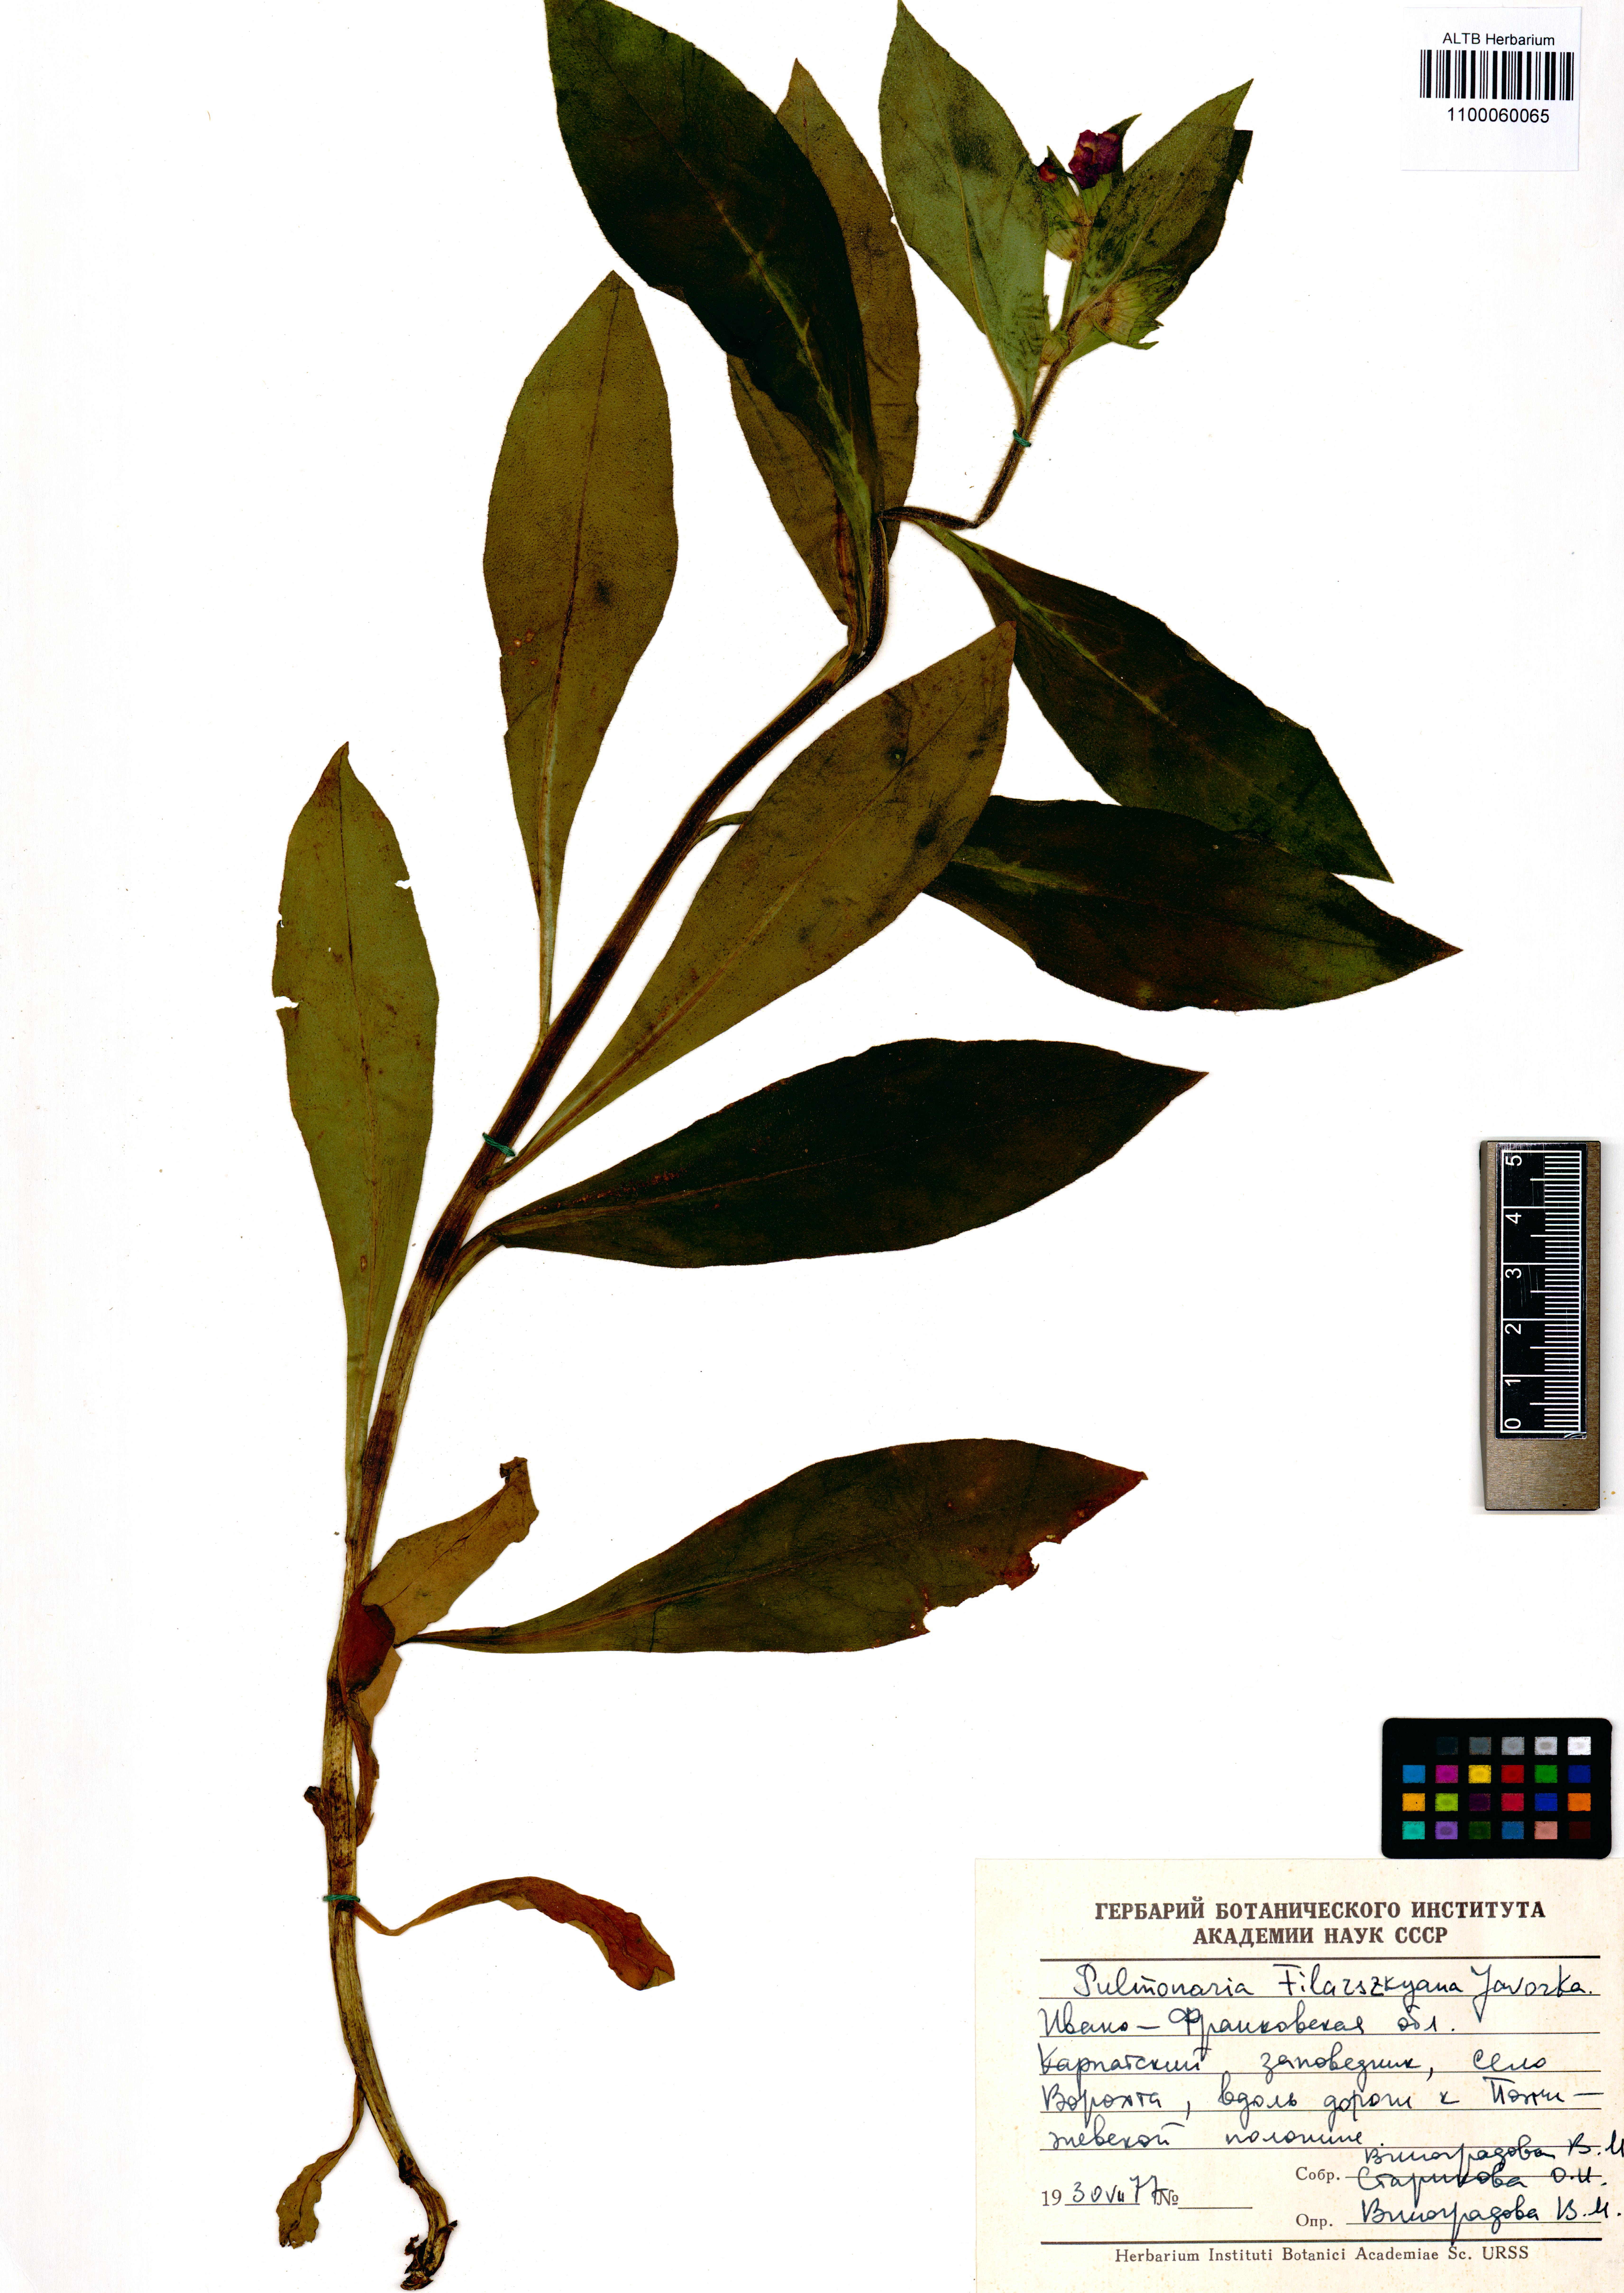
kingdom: Plantae
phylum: Tracheophyta
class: Magnoliopsida
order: Boraginales
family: Boraginaceae
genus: Pulmonaria
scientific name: Pulmonaria filarszkyana
